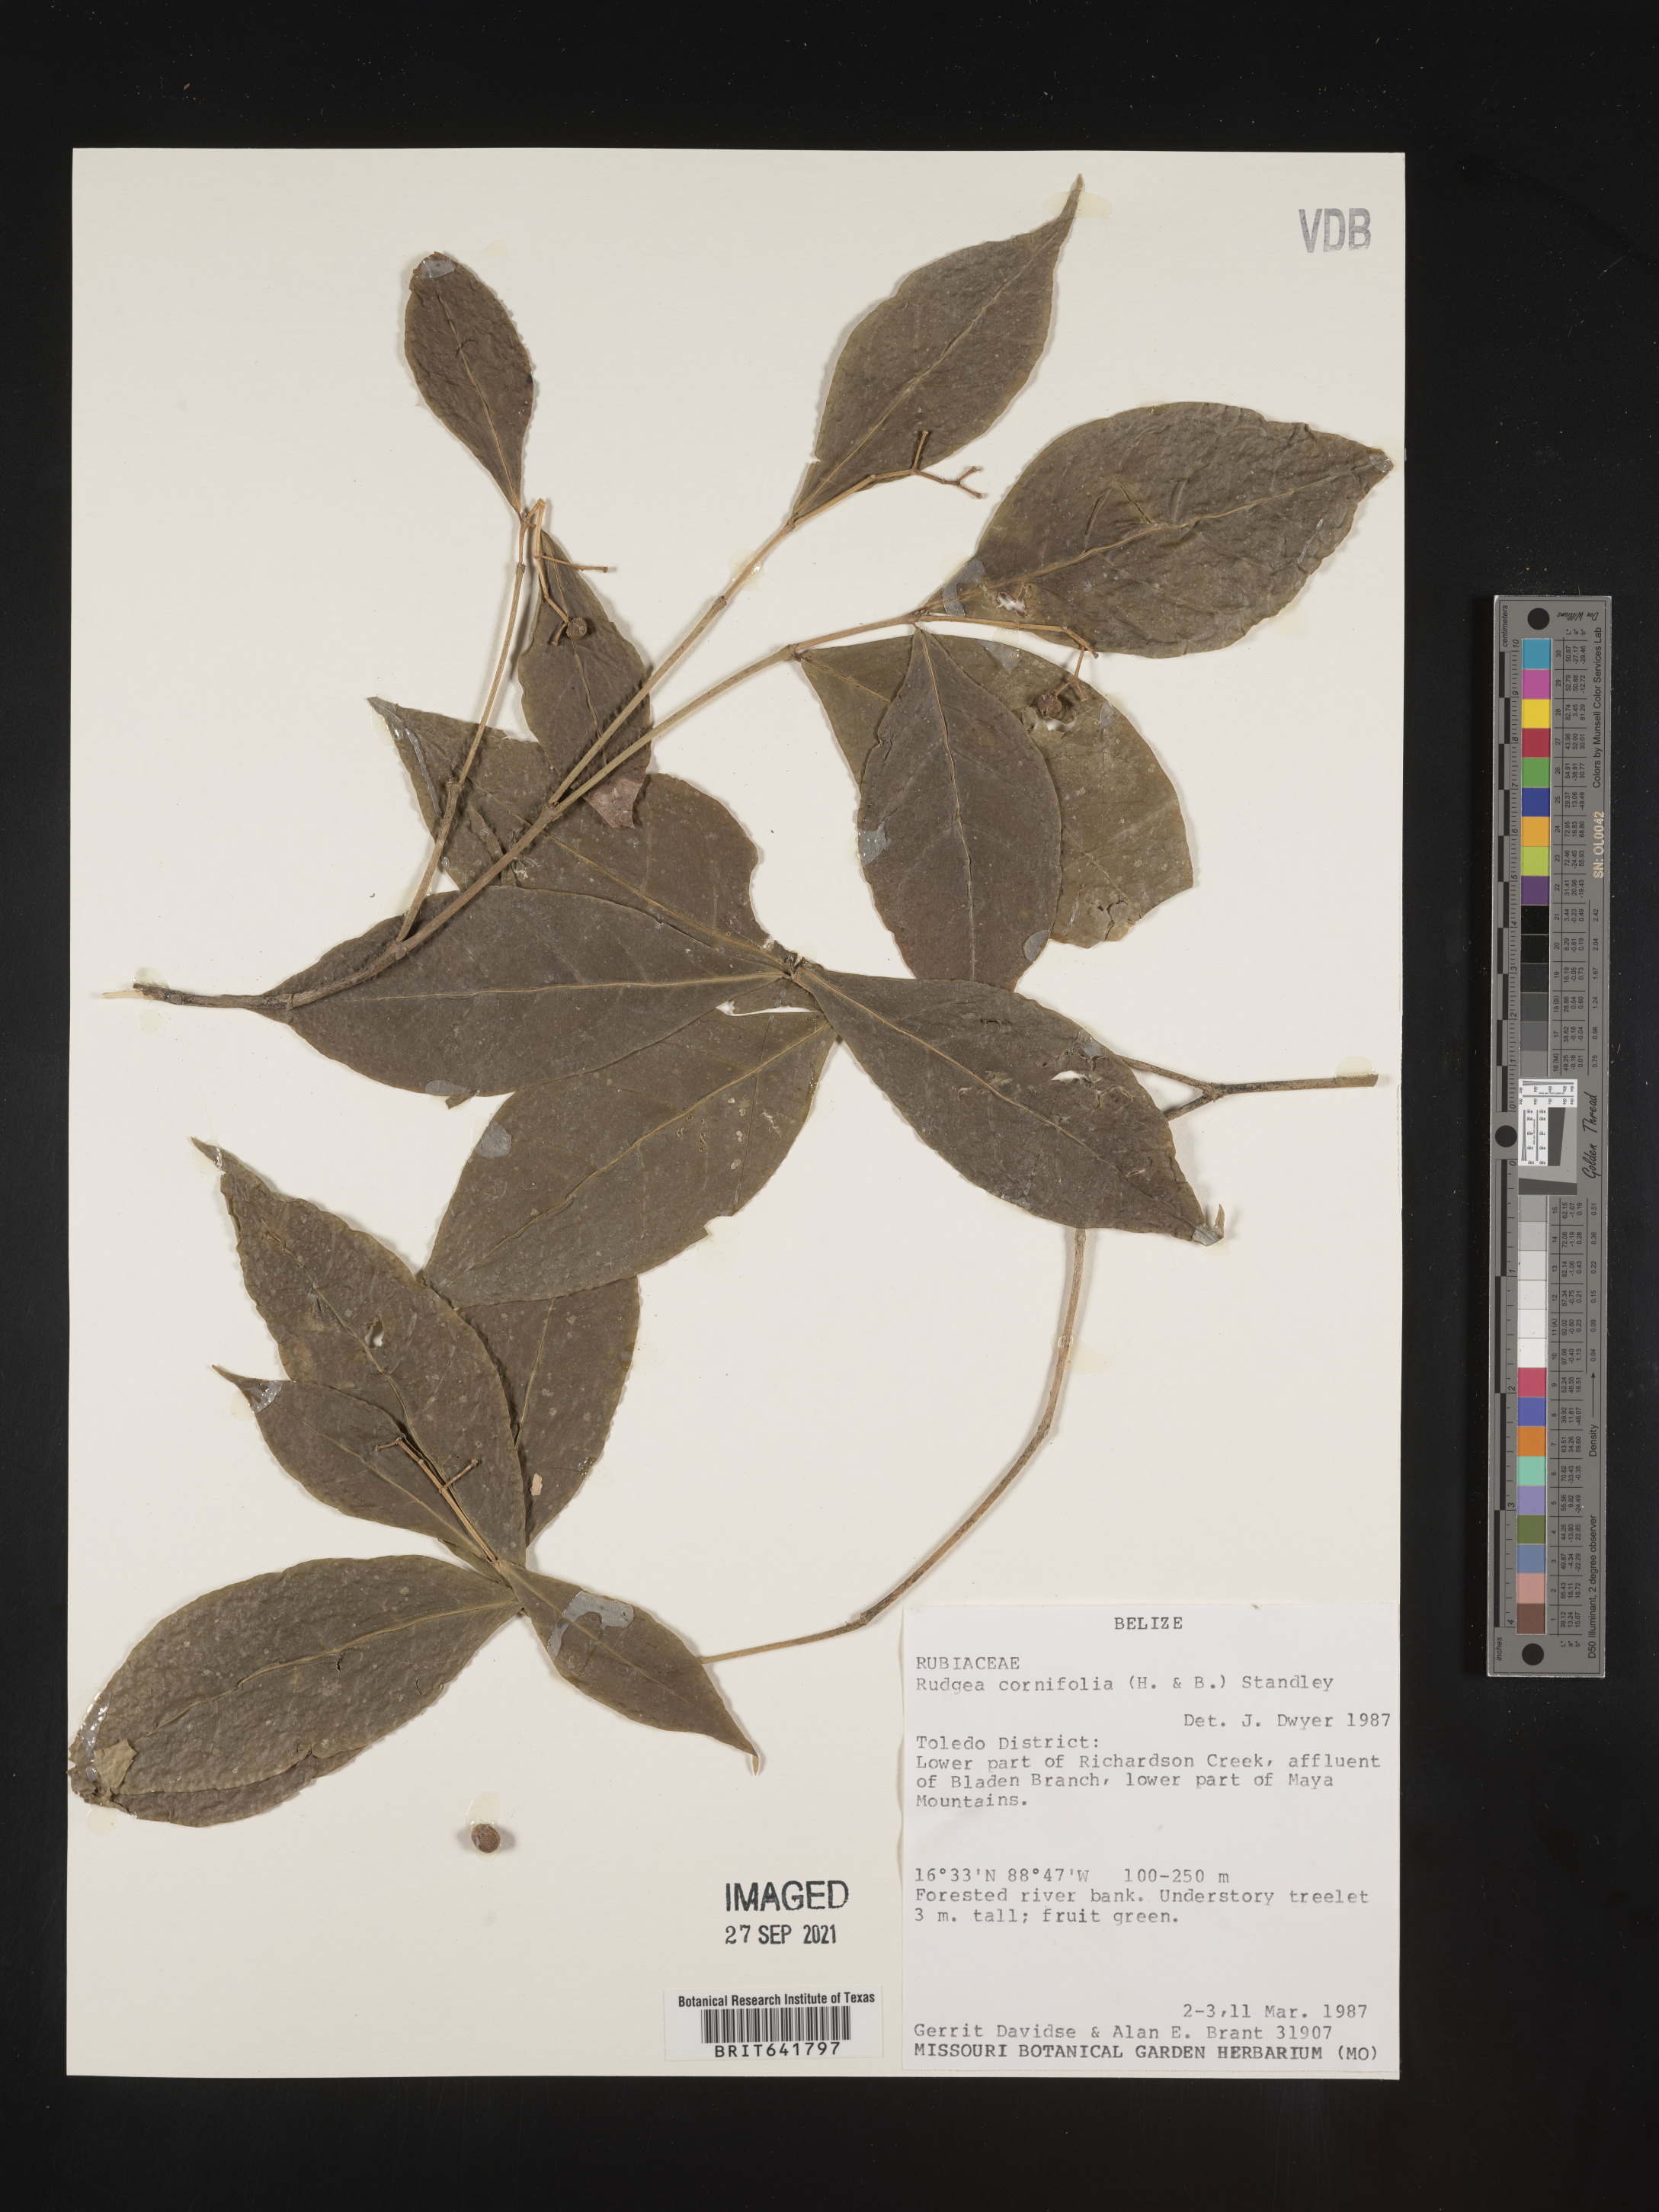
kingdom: Plantae
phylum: Tracheophyta
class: Magnoliopsida
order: Gentianales
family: Rubiaceae
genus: Rudgea
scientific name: Rudgea
